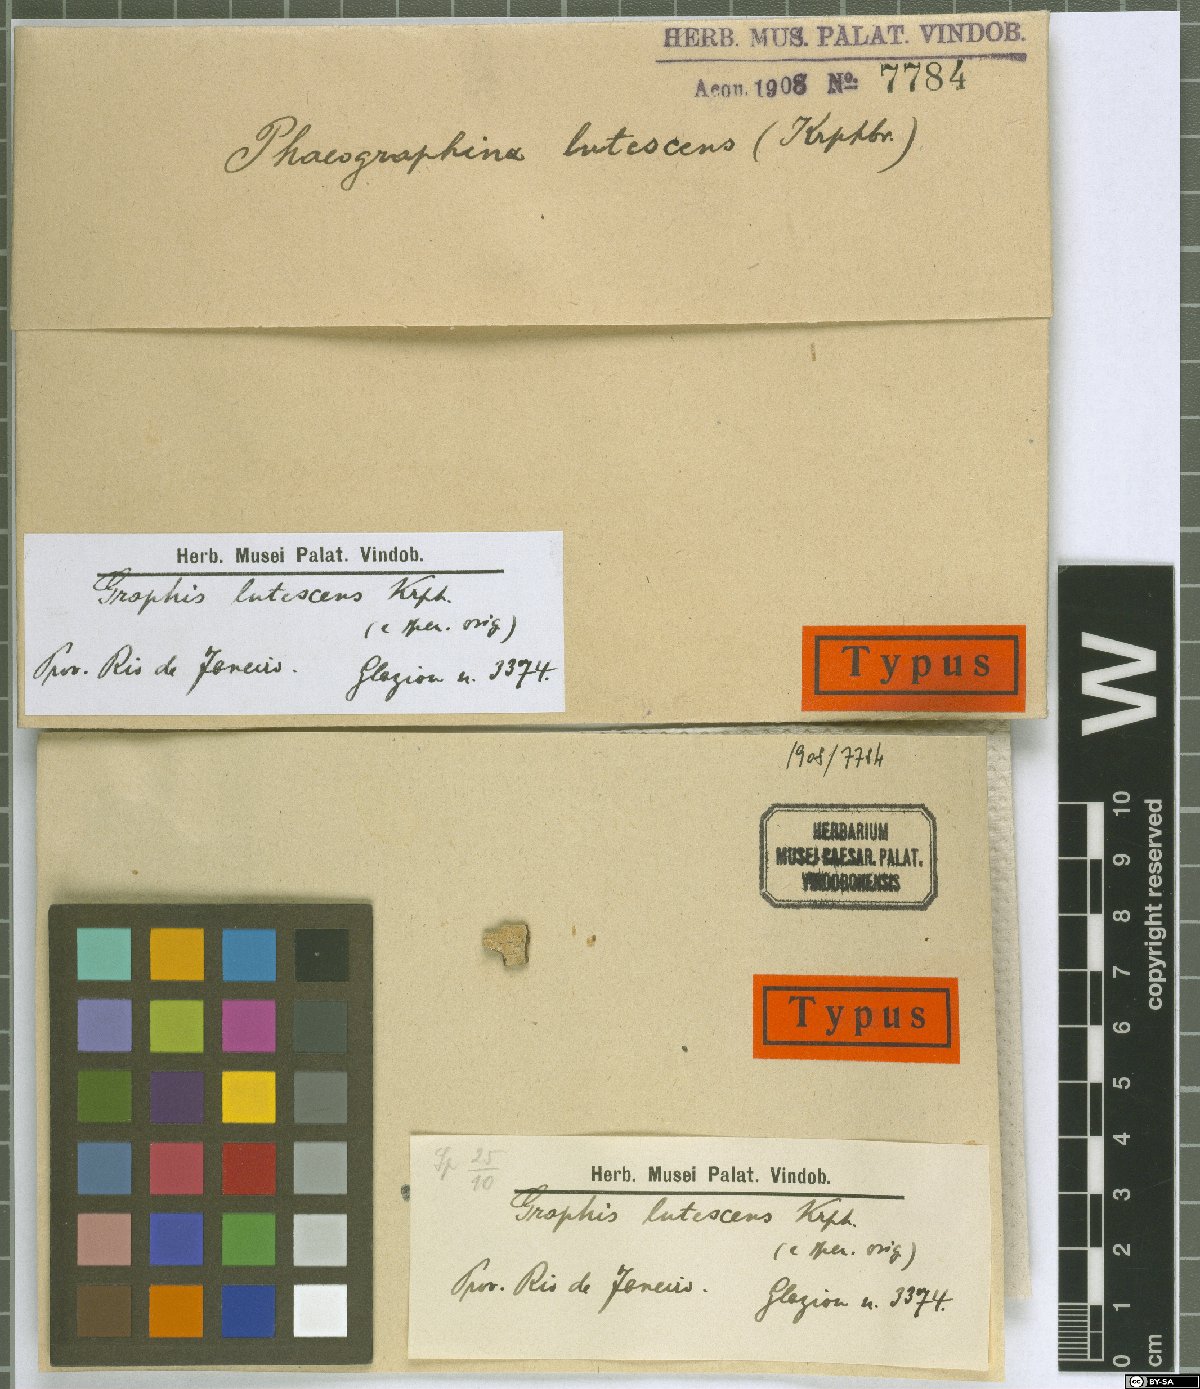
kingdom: Fungi
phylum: Ascomycota
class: Lecanoromycetes
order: Ostropales
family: Graphidaceae
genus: Graphis
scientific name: Graphis
